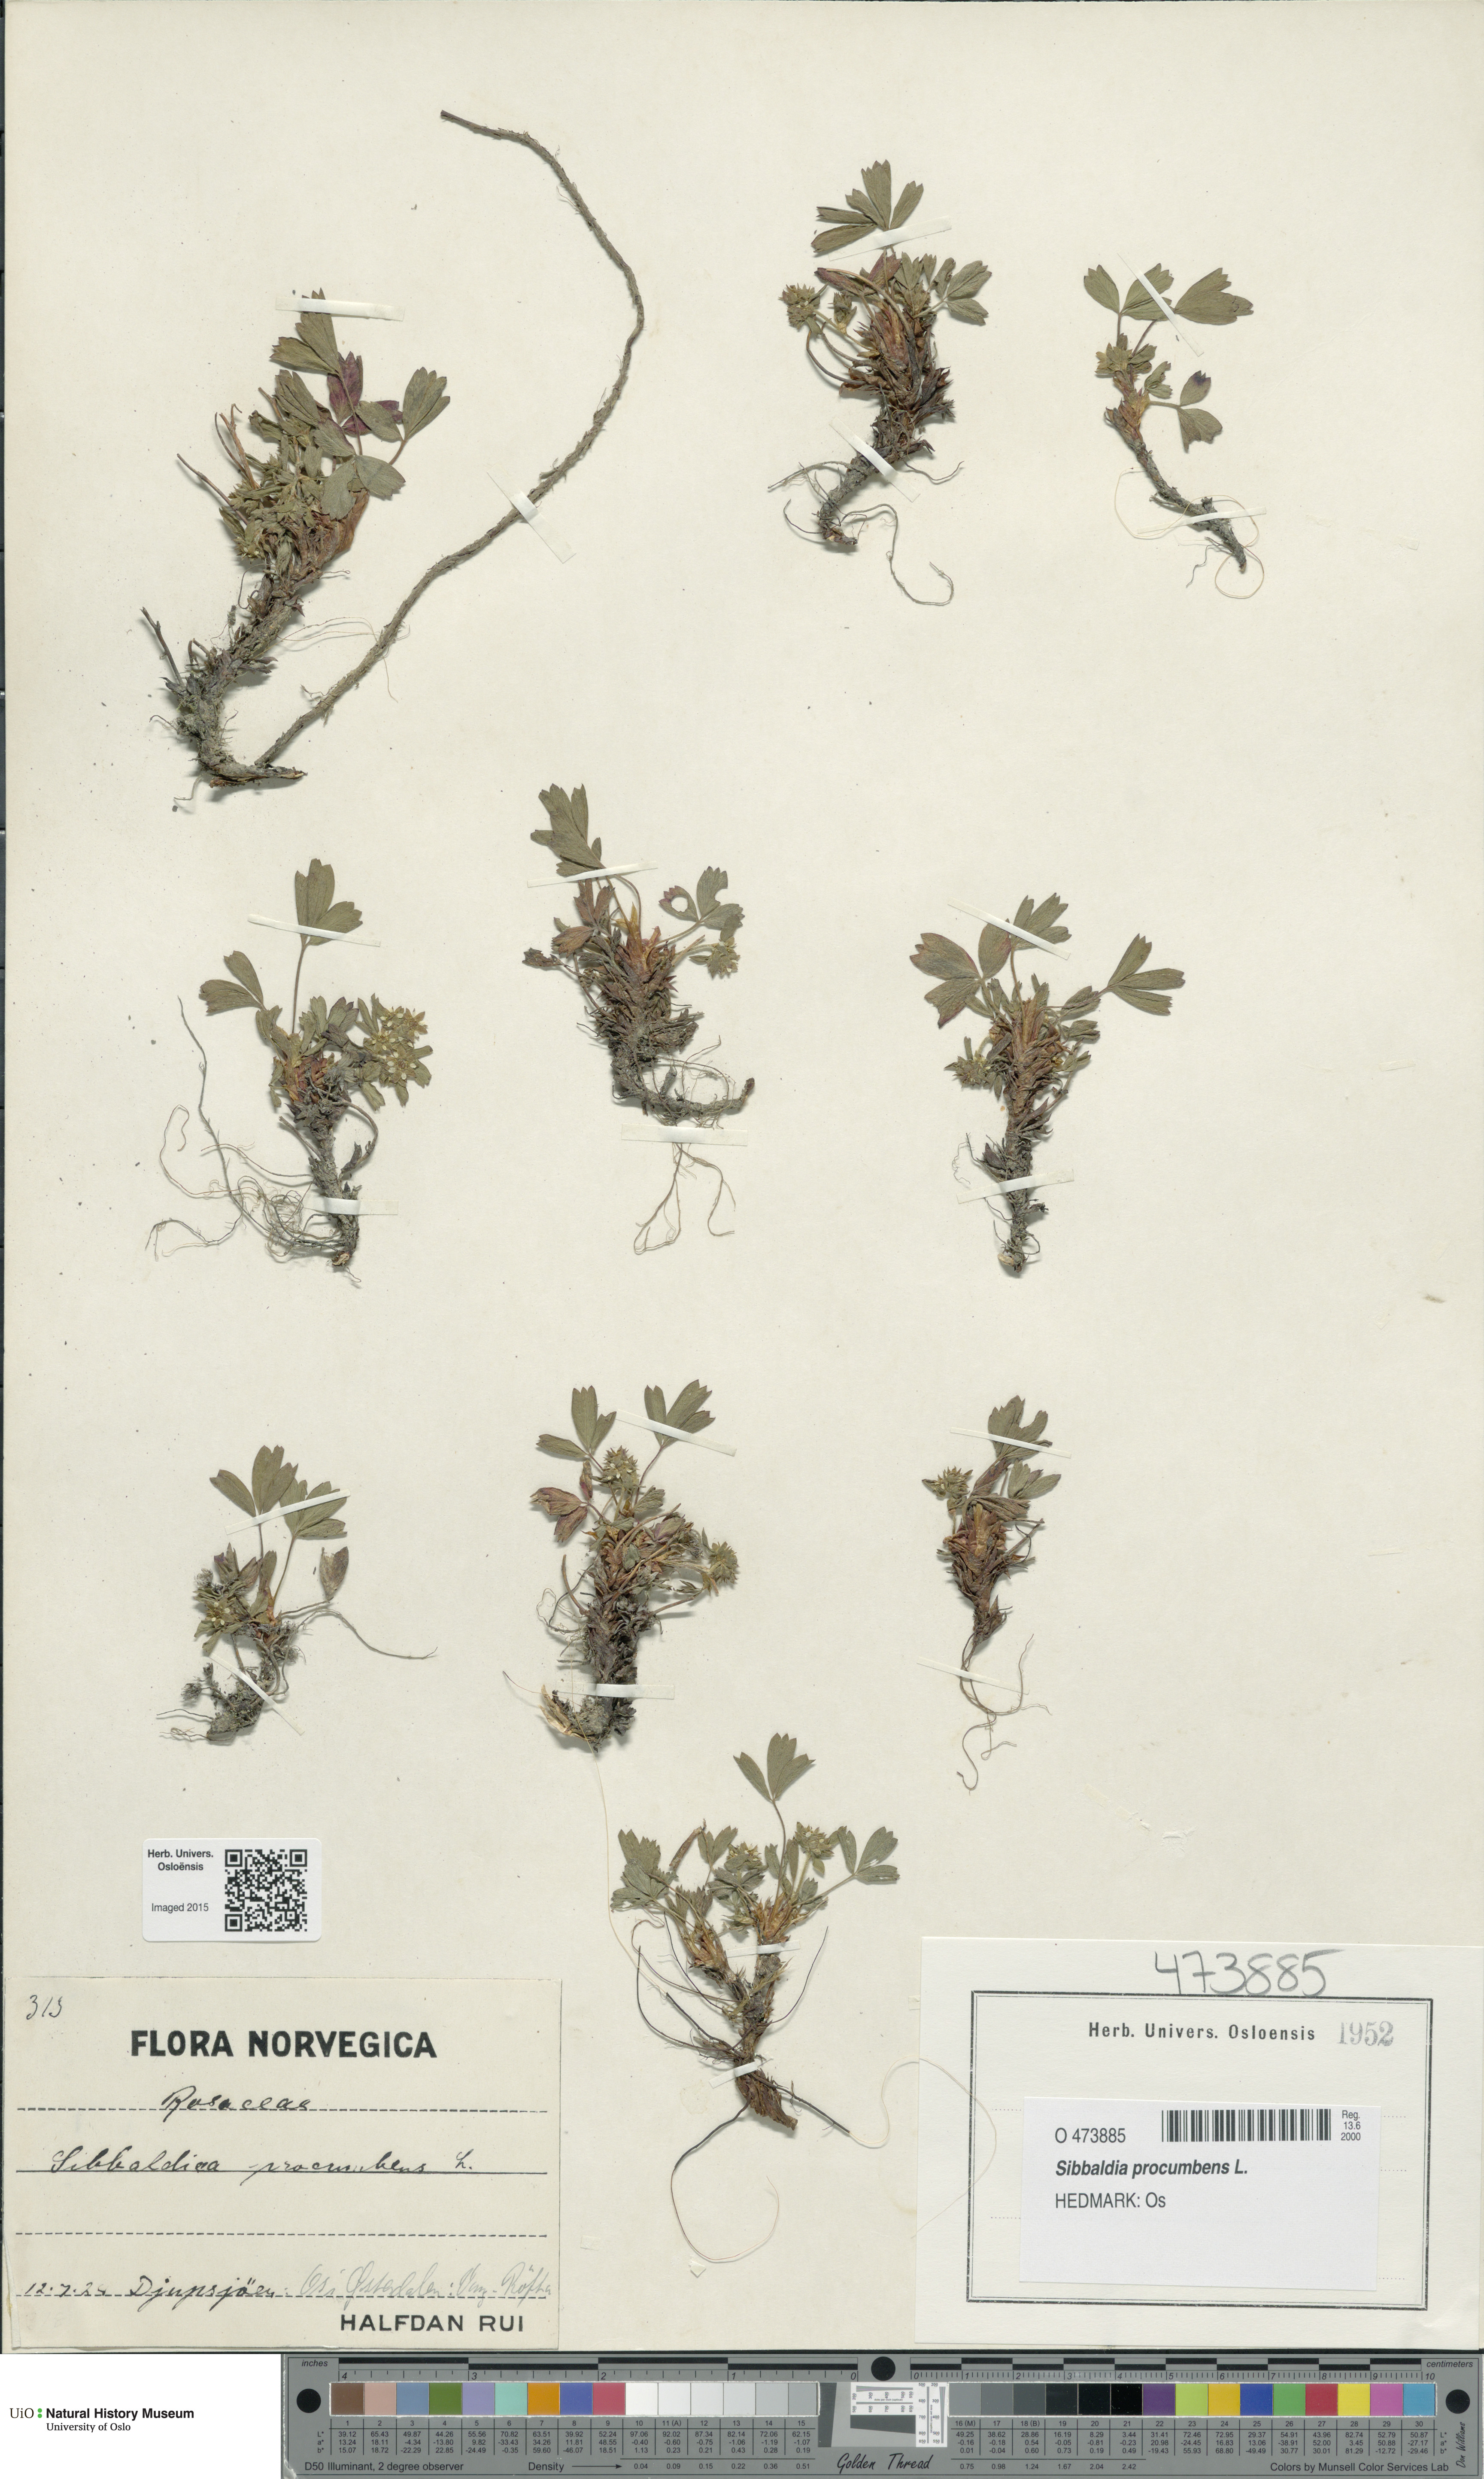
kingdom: Plantae
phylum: Tracheophyta
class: Magnoliopsida
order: Rosales
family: Rosaceae
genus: Sibbaldia
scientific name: Sibbaldia procumbens
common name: Creeping sibbaldia
